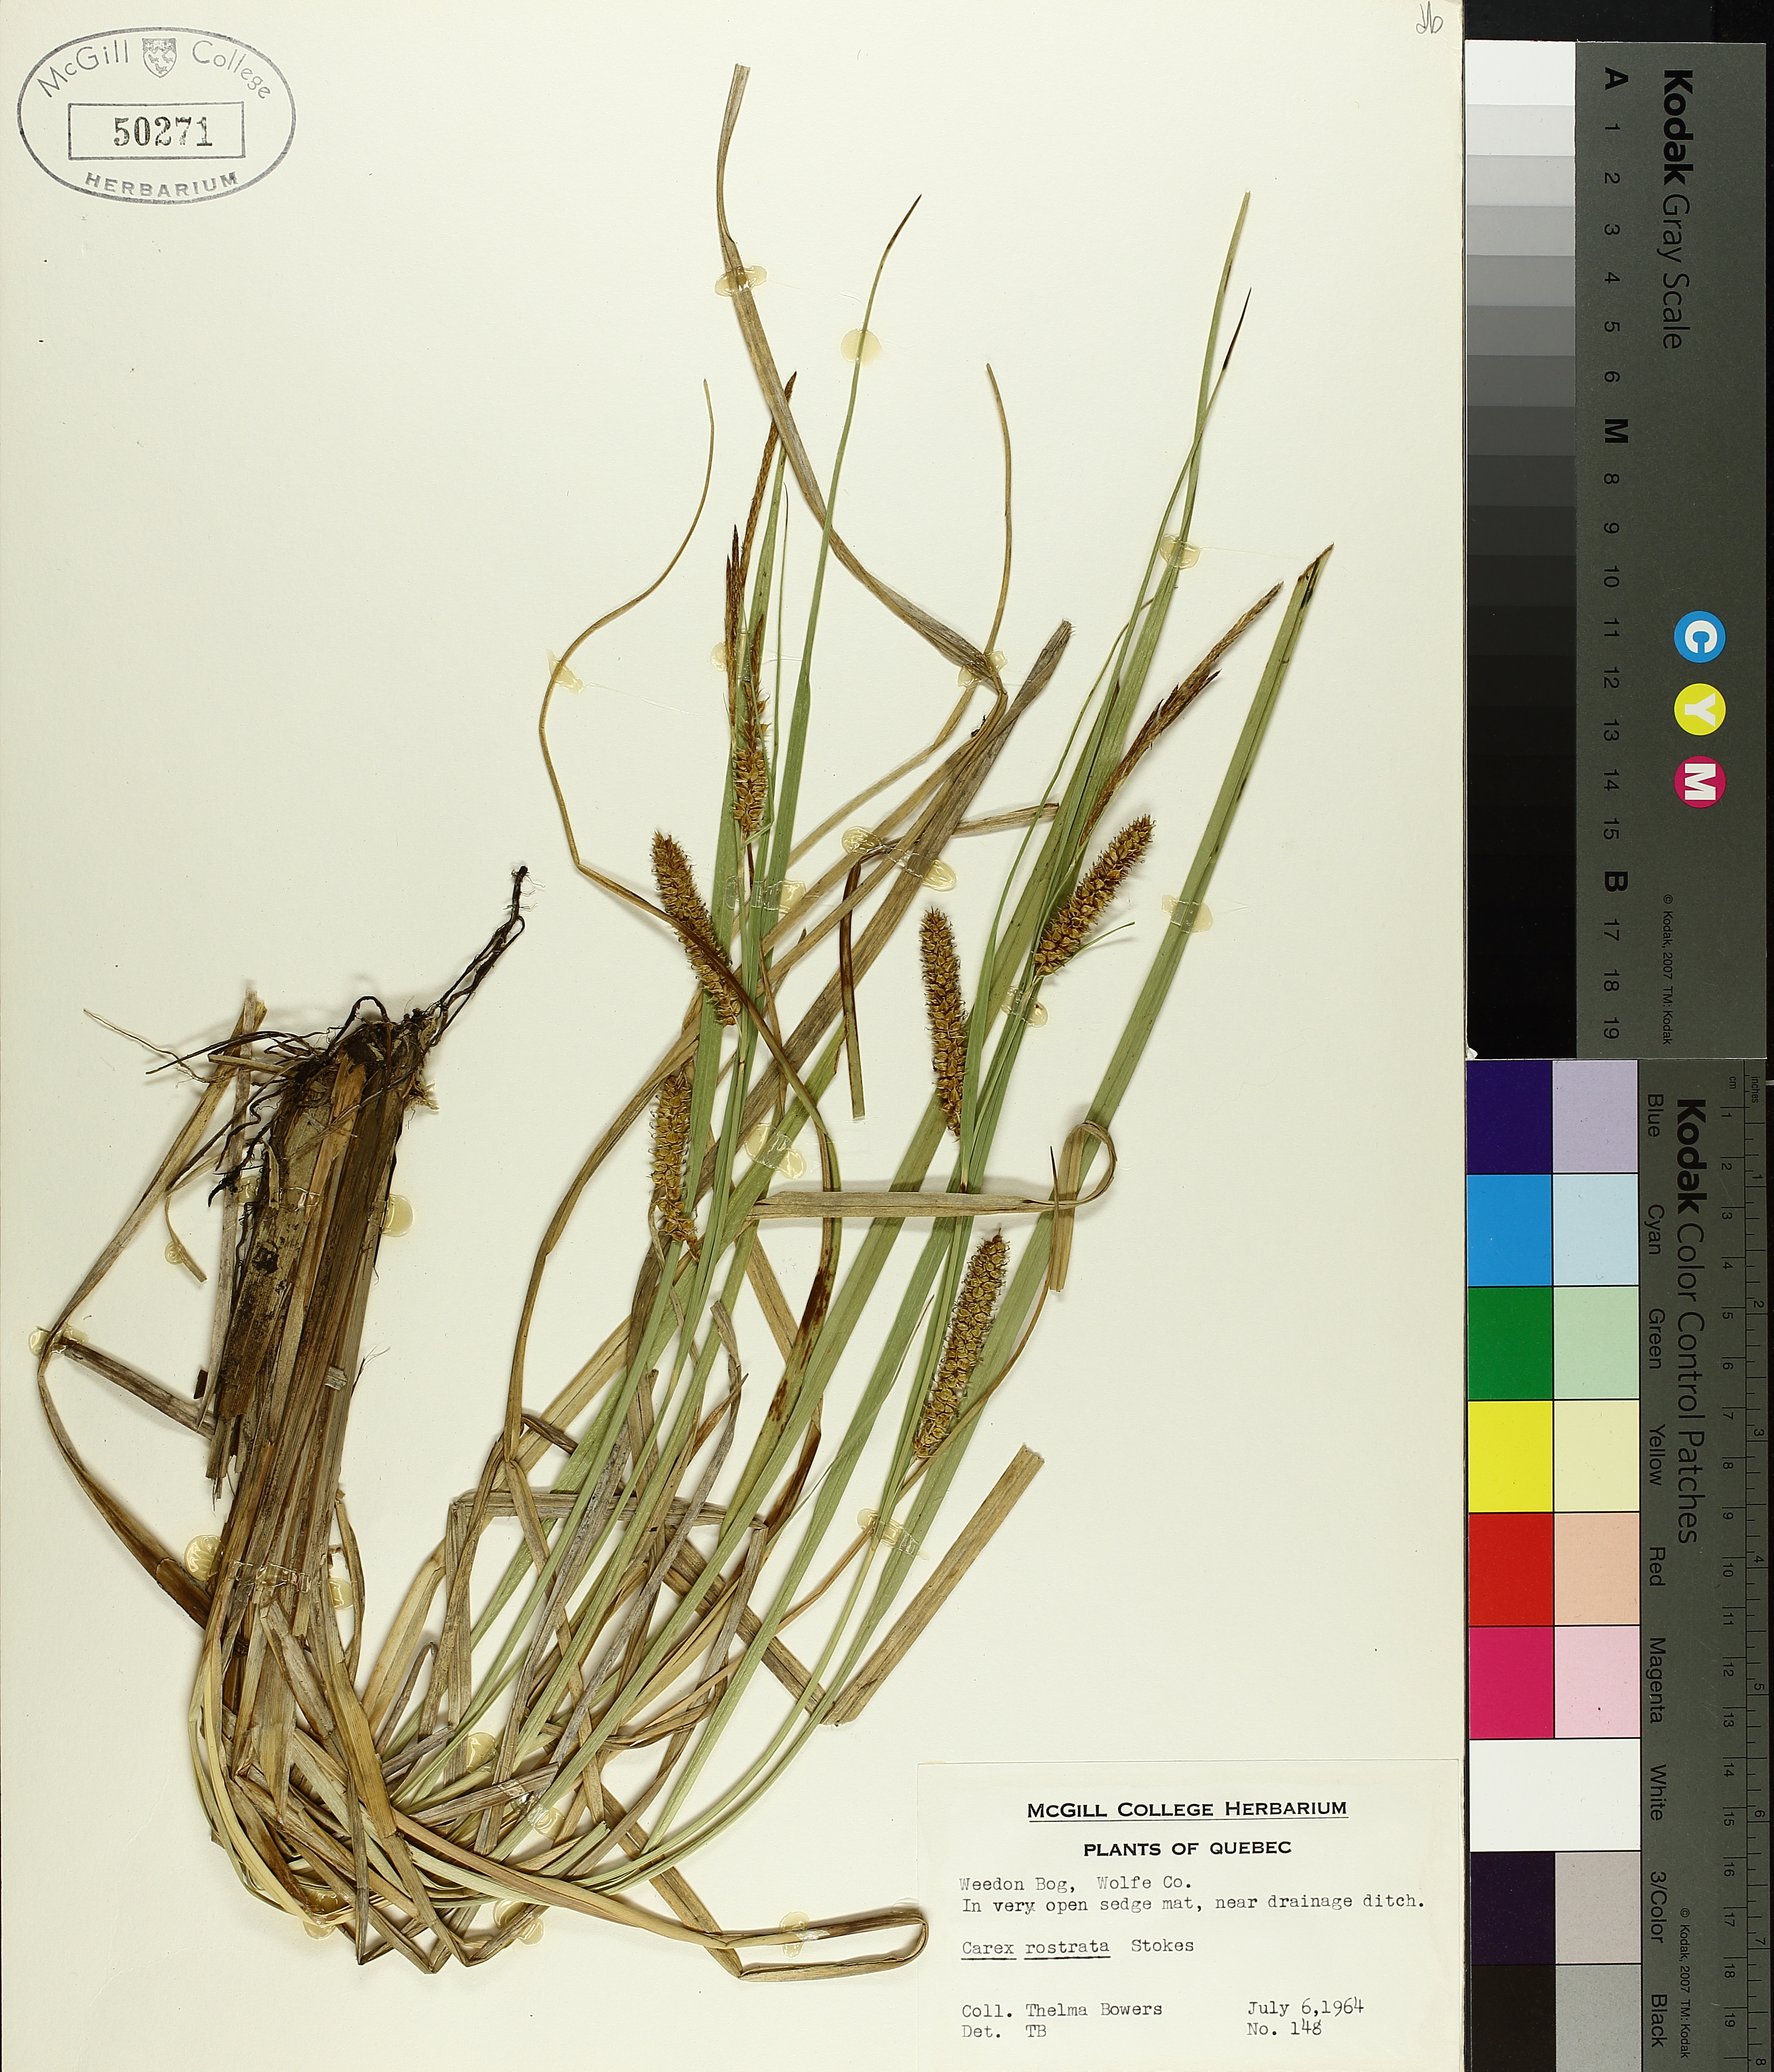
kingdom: Plantae
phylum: Tracheophyta
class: Liliopsida
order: Poales
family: Cyperaceae
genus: Carex
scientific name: Carex rostrata
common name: Bottle sedge
